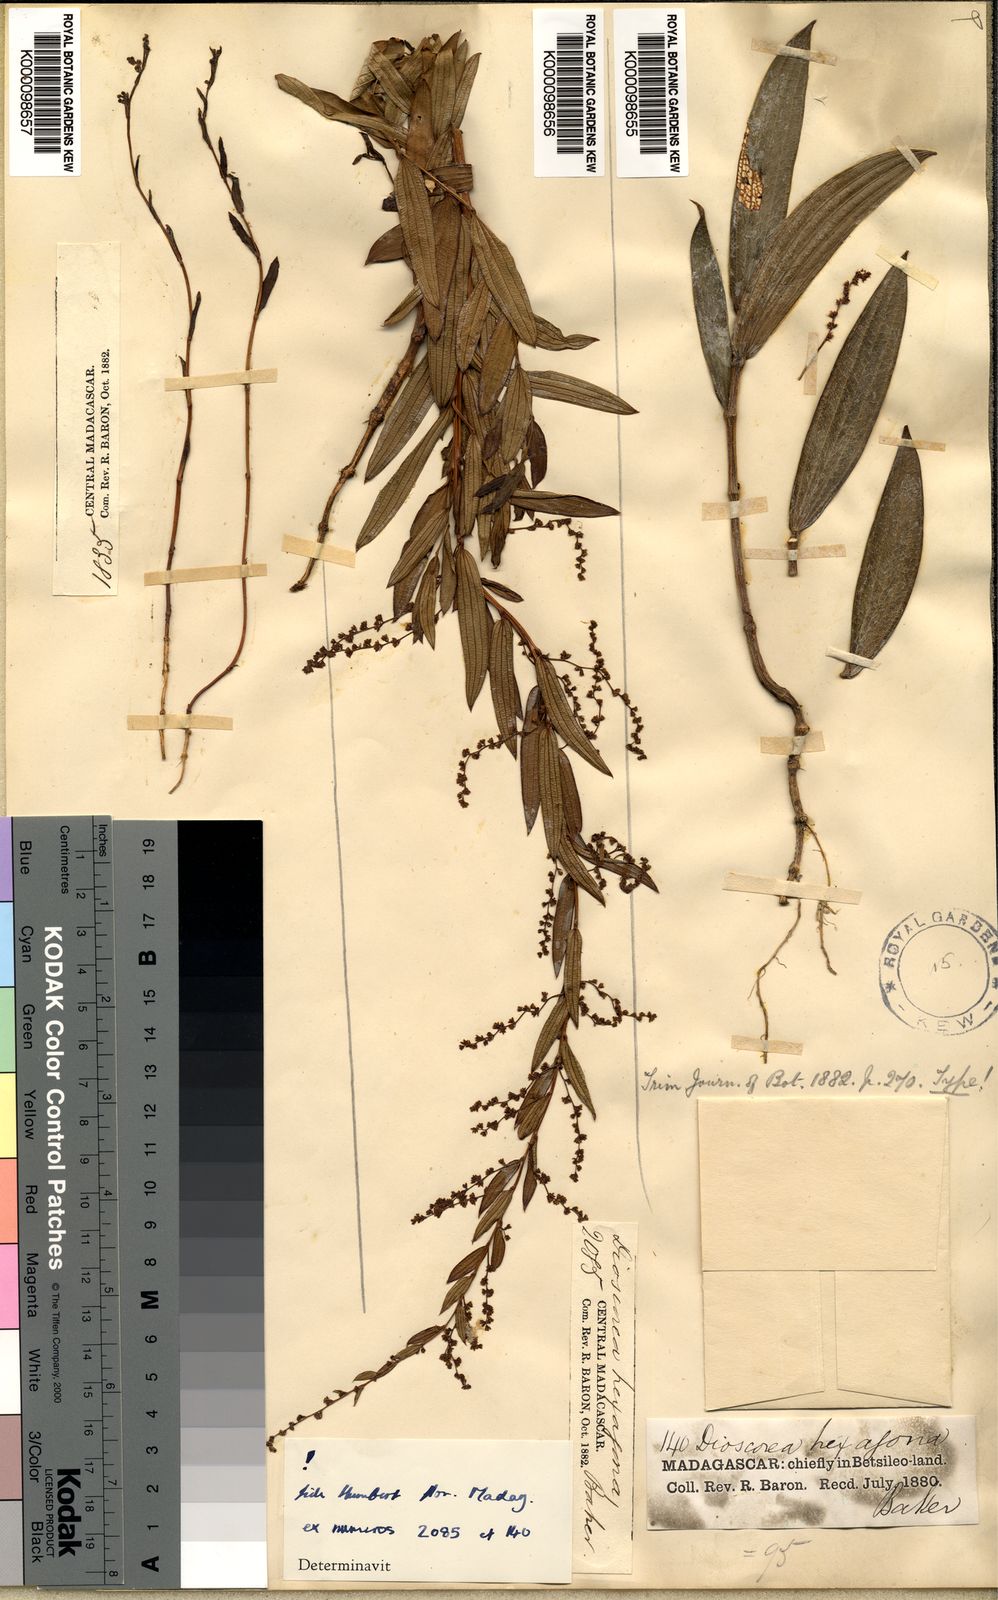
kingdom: Plantae
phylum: Tracheophyta
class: Liliopsida
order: Dioscoreales
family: Dioscoreaceae
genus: Dioscorea
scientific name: Dioscorea hexagona
